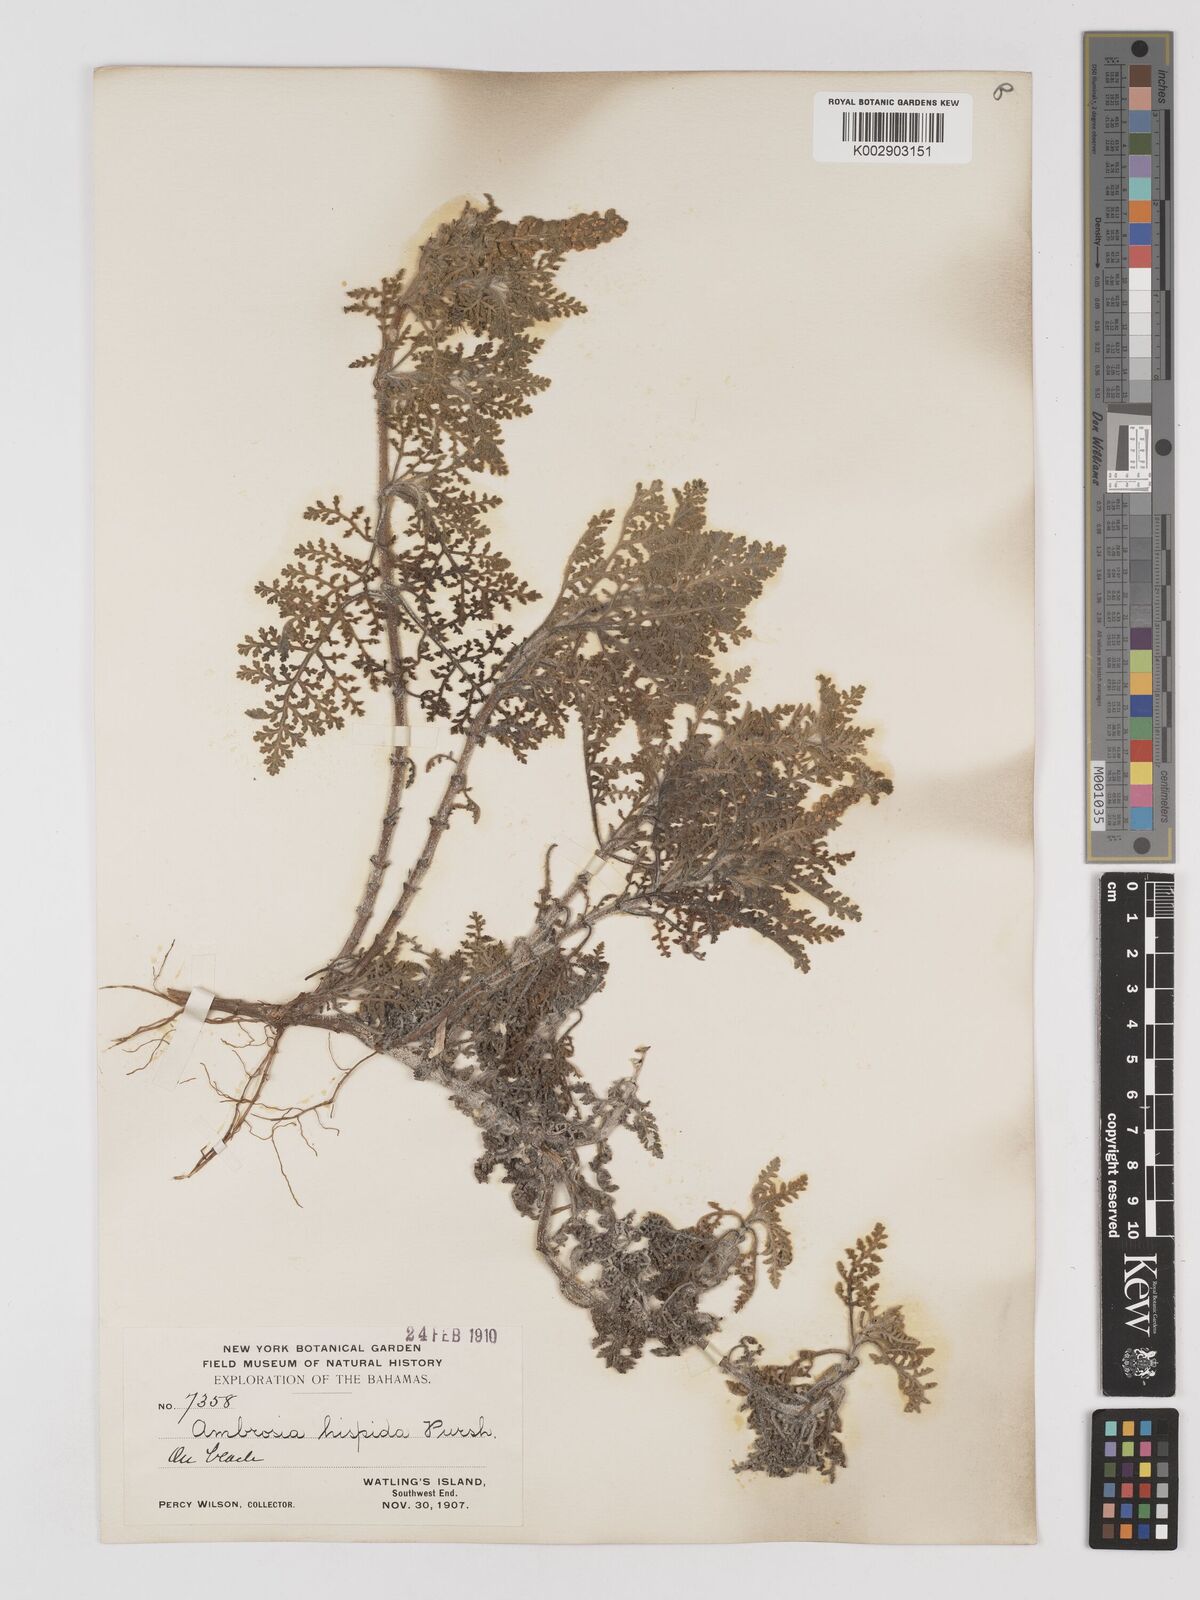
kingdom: Plantae
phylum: Tracheophyta
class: Magnoliopsida
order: Asterales
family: Asteraceae
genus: Ambrosia
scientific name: Ambrosia hispida
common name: Coastal ragweed
